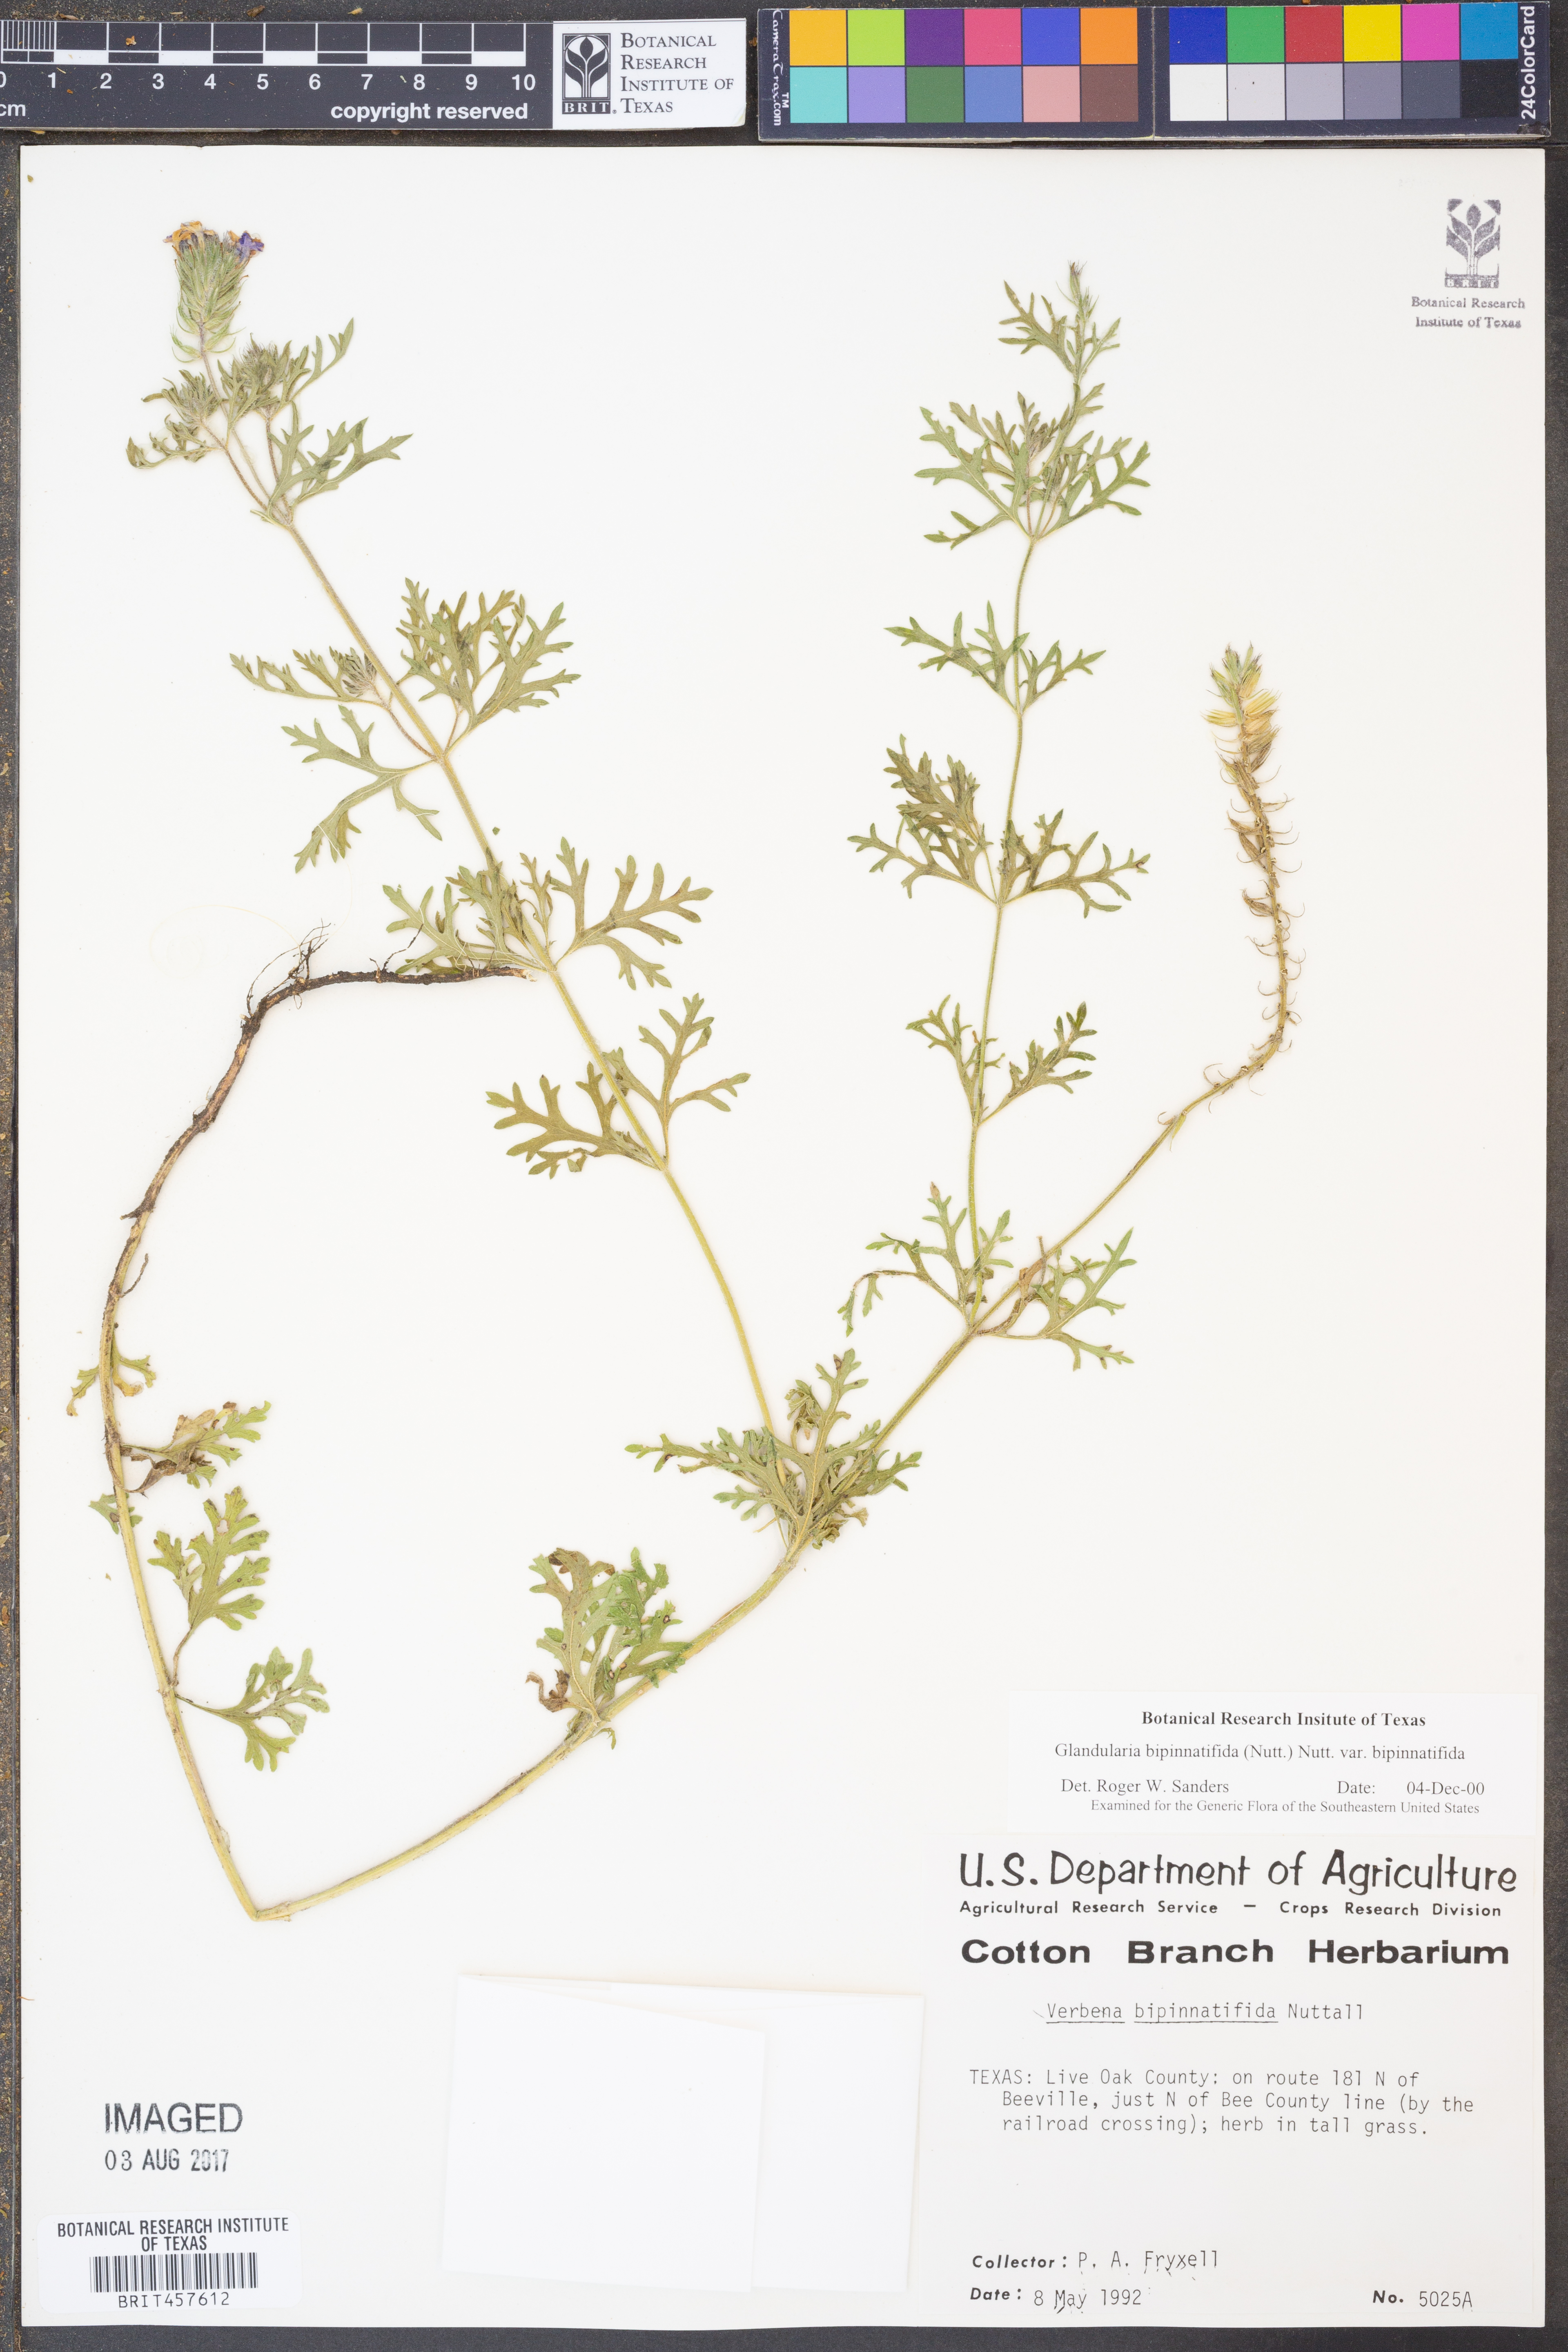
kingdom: Plantae
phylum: Tracheophyta
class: Magnoliopsida
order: Lamiales
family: Verbenaceae
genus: Verbena
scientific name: Verbena bipinnatifida
